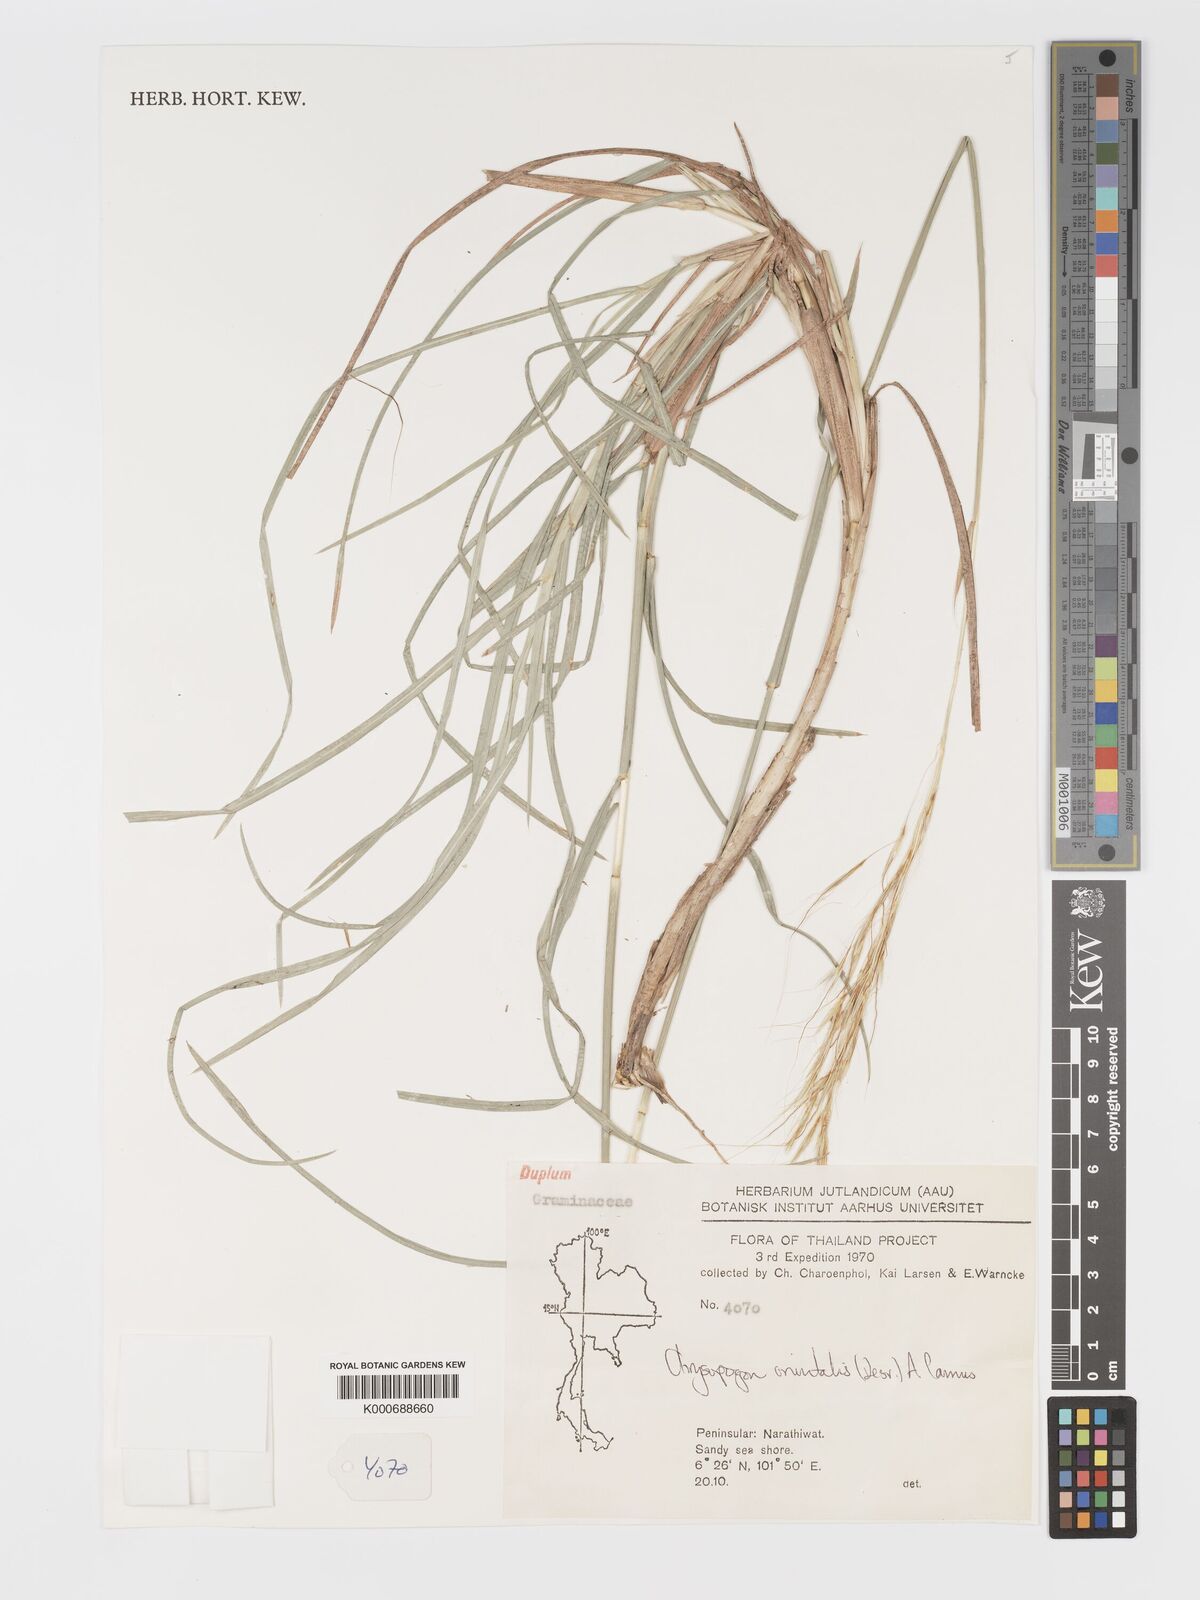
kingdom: Plantae
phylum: Tracheophyta
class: Liliopsida
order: Poales
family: Poaceae
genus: Chrysopogon
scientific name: Chrysopogon orientalis
